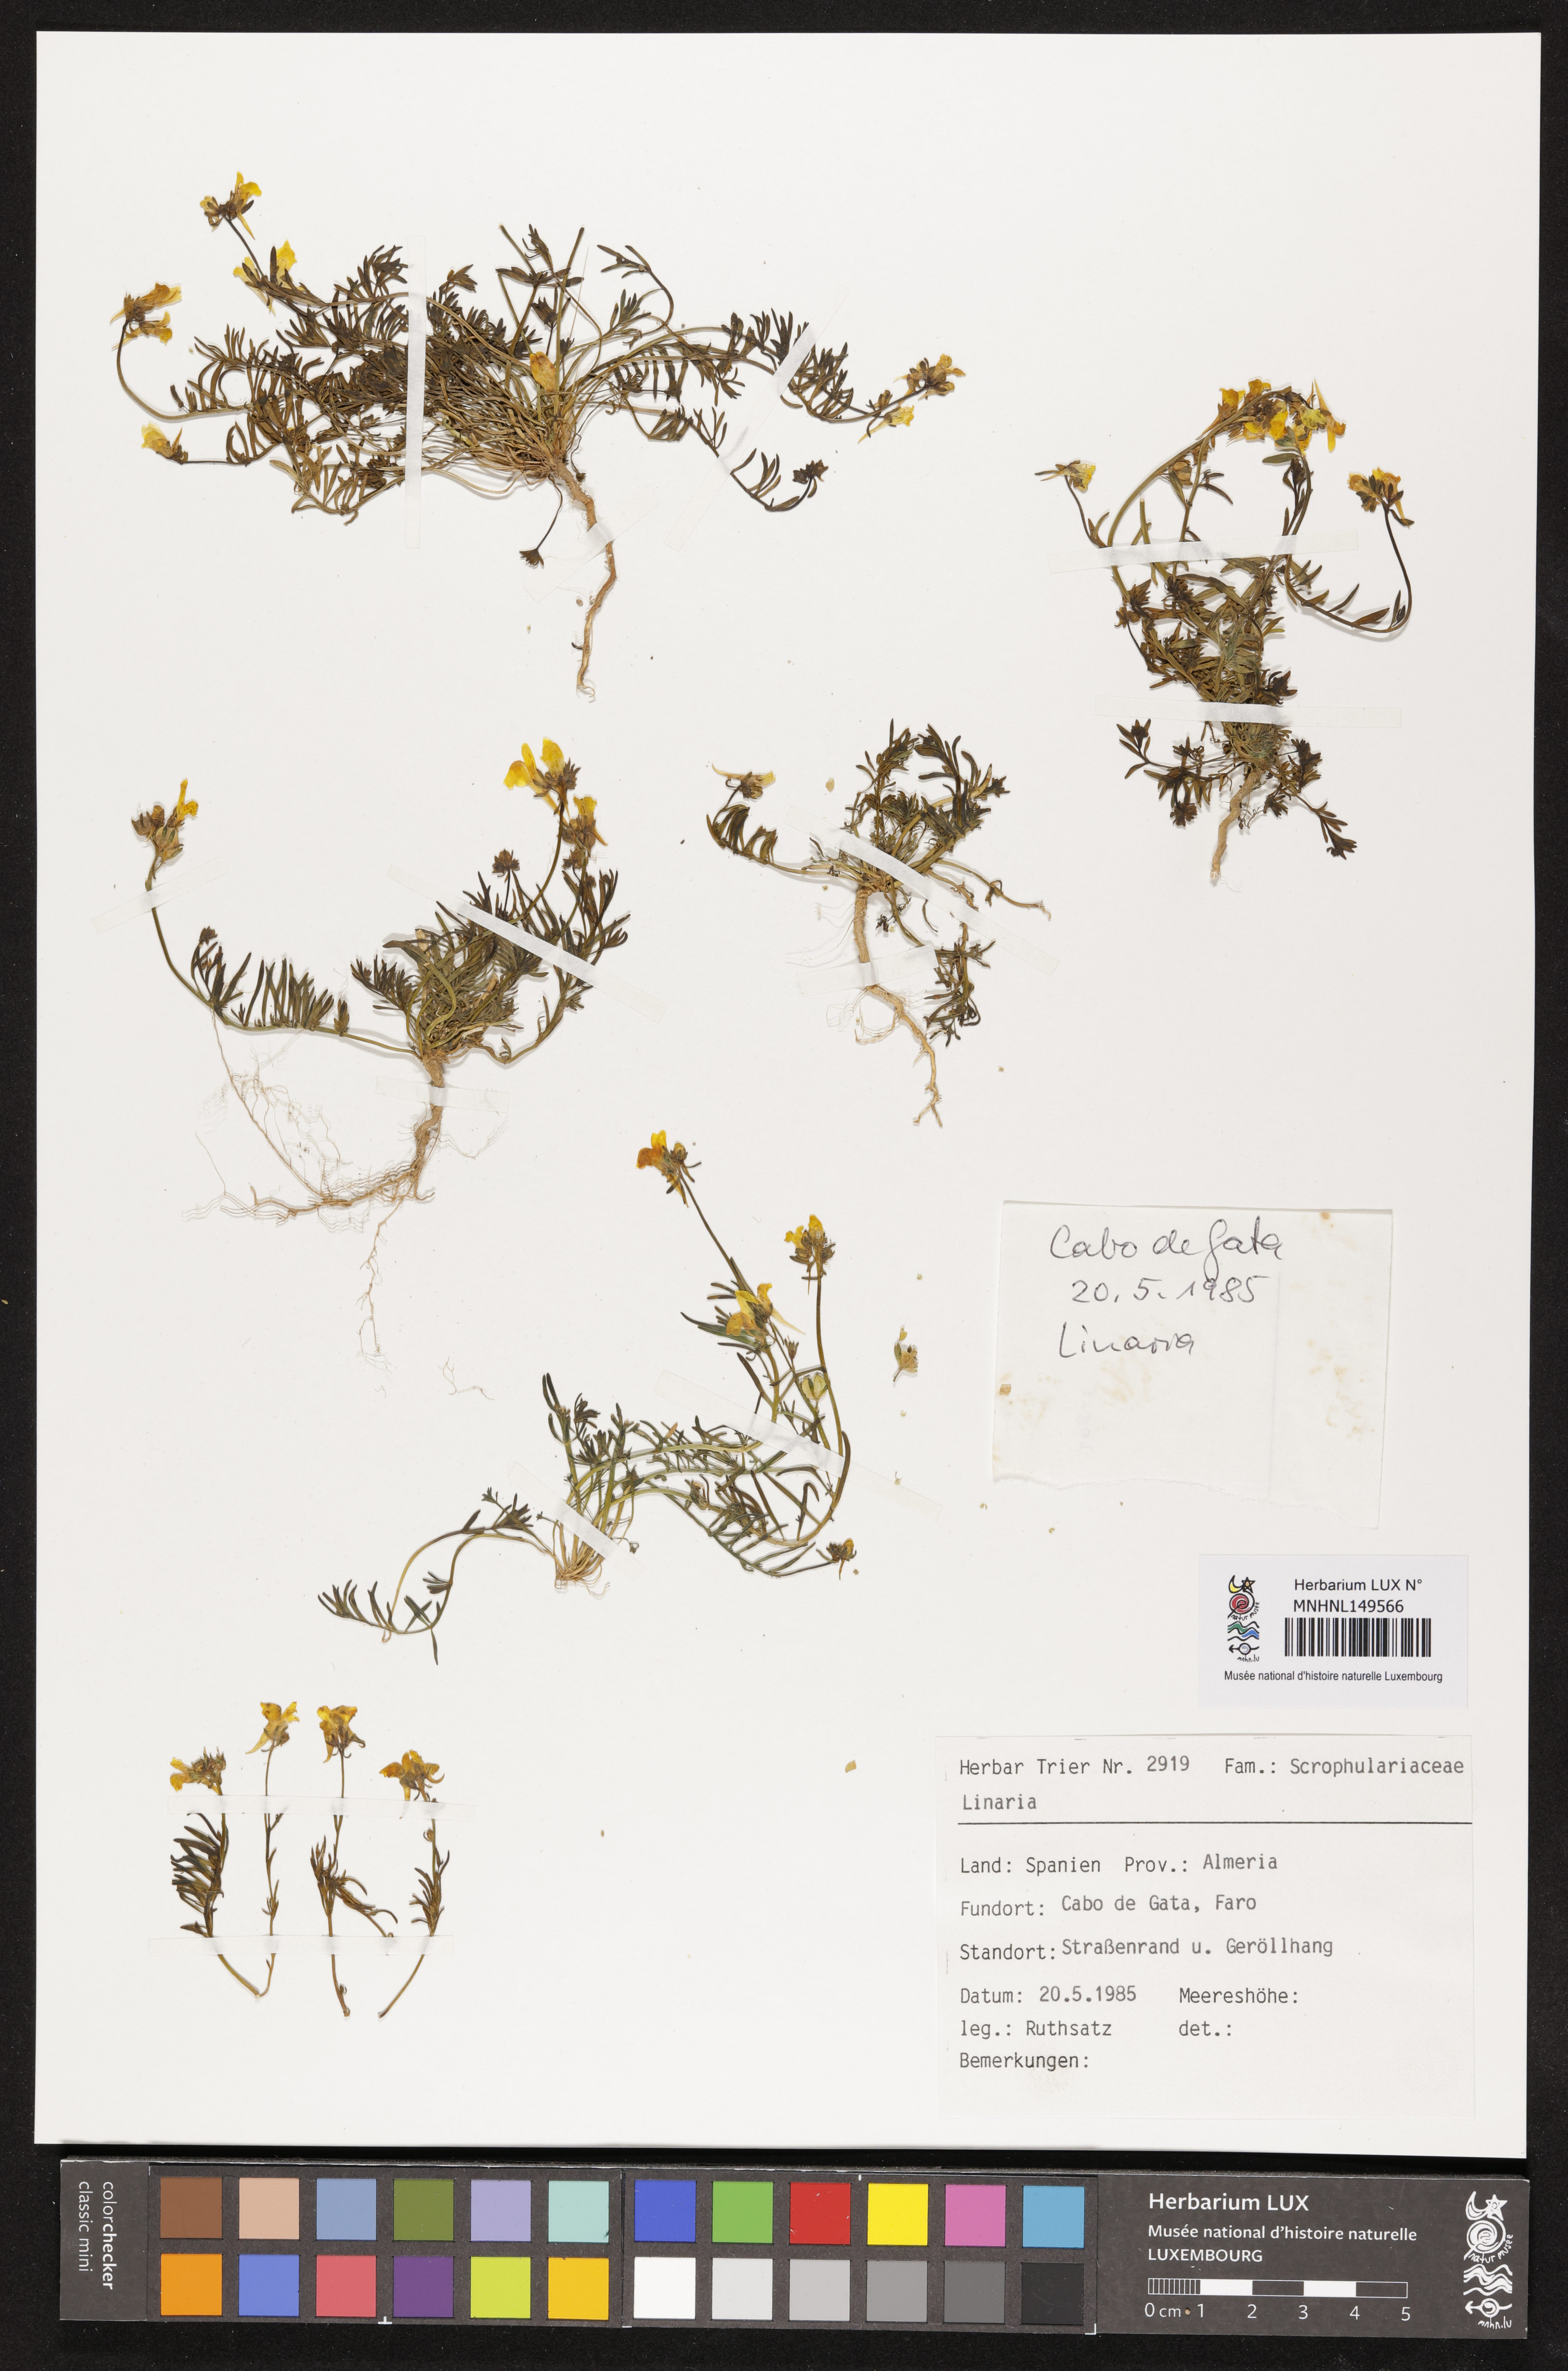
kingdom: Plantae
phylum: Tracheophyta
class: Magnoliopsida
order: Lamiales
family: Plantaginaceae
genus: Linaria
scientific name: Linaria
